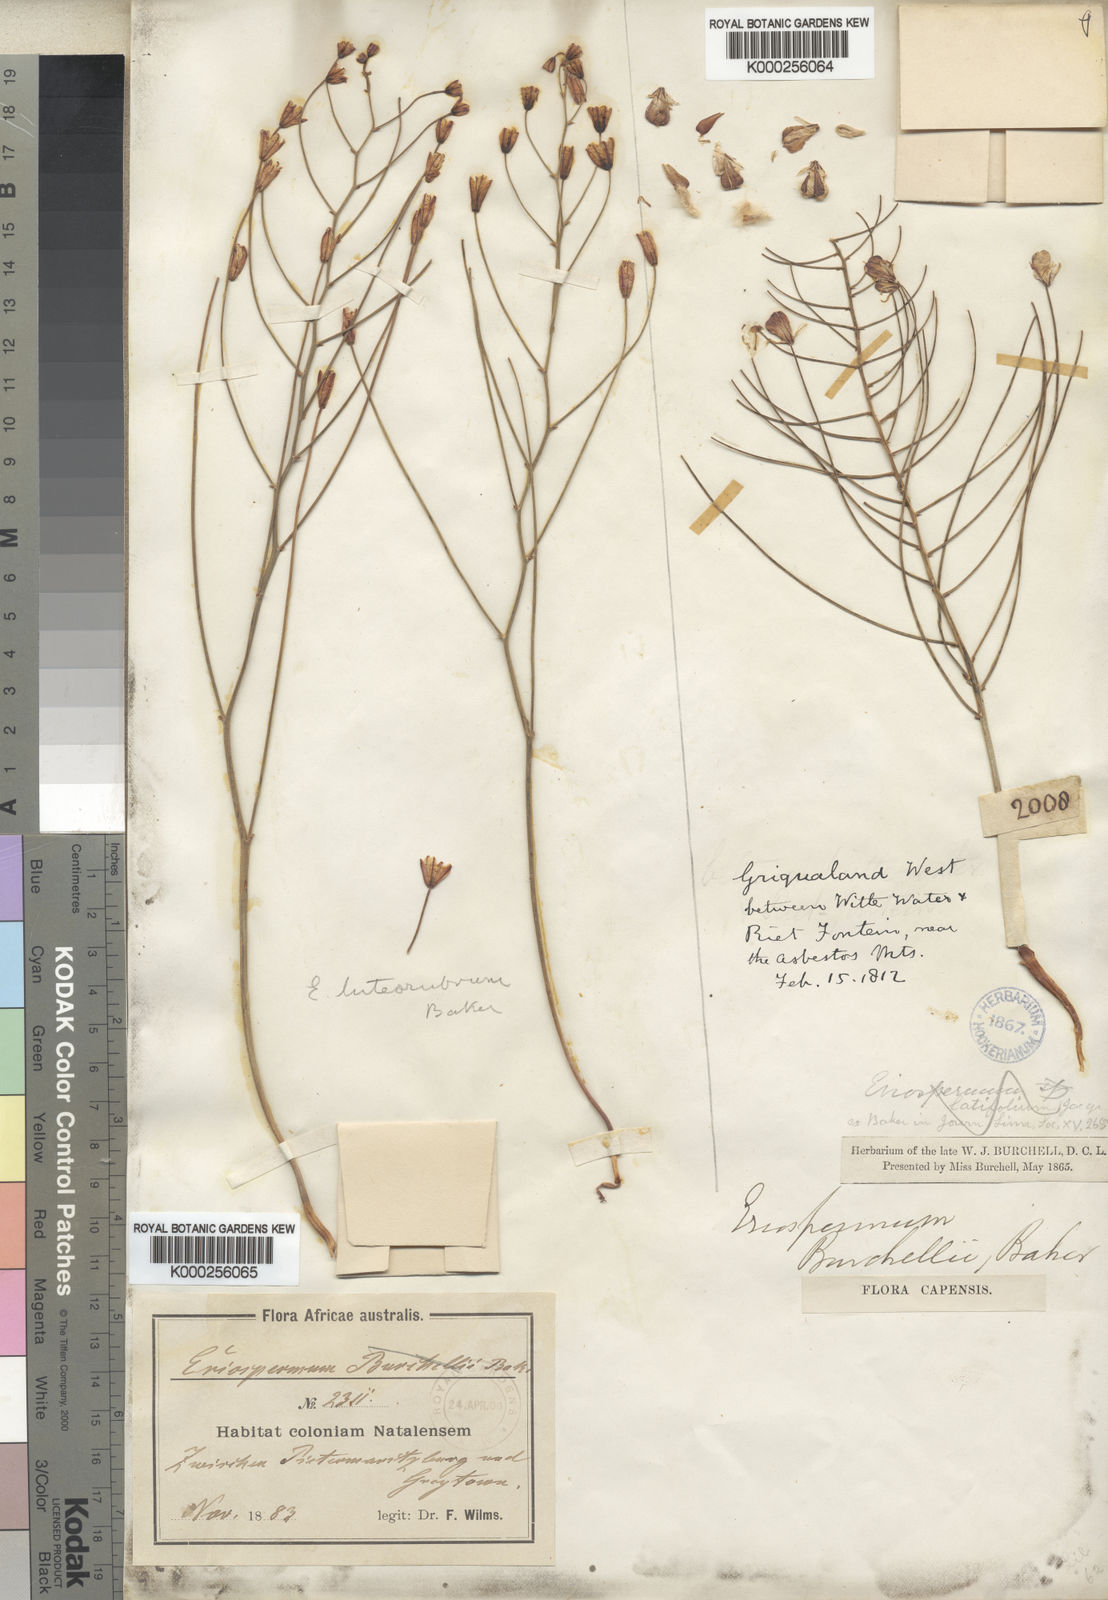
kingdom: Plantae
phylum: Tracheophyta
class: Liliopsida
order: Asparagales
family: Asparagaceae
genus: Eriospermum
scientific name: Eriospermum abyssinicum
